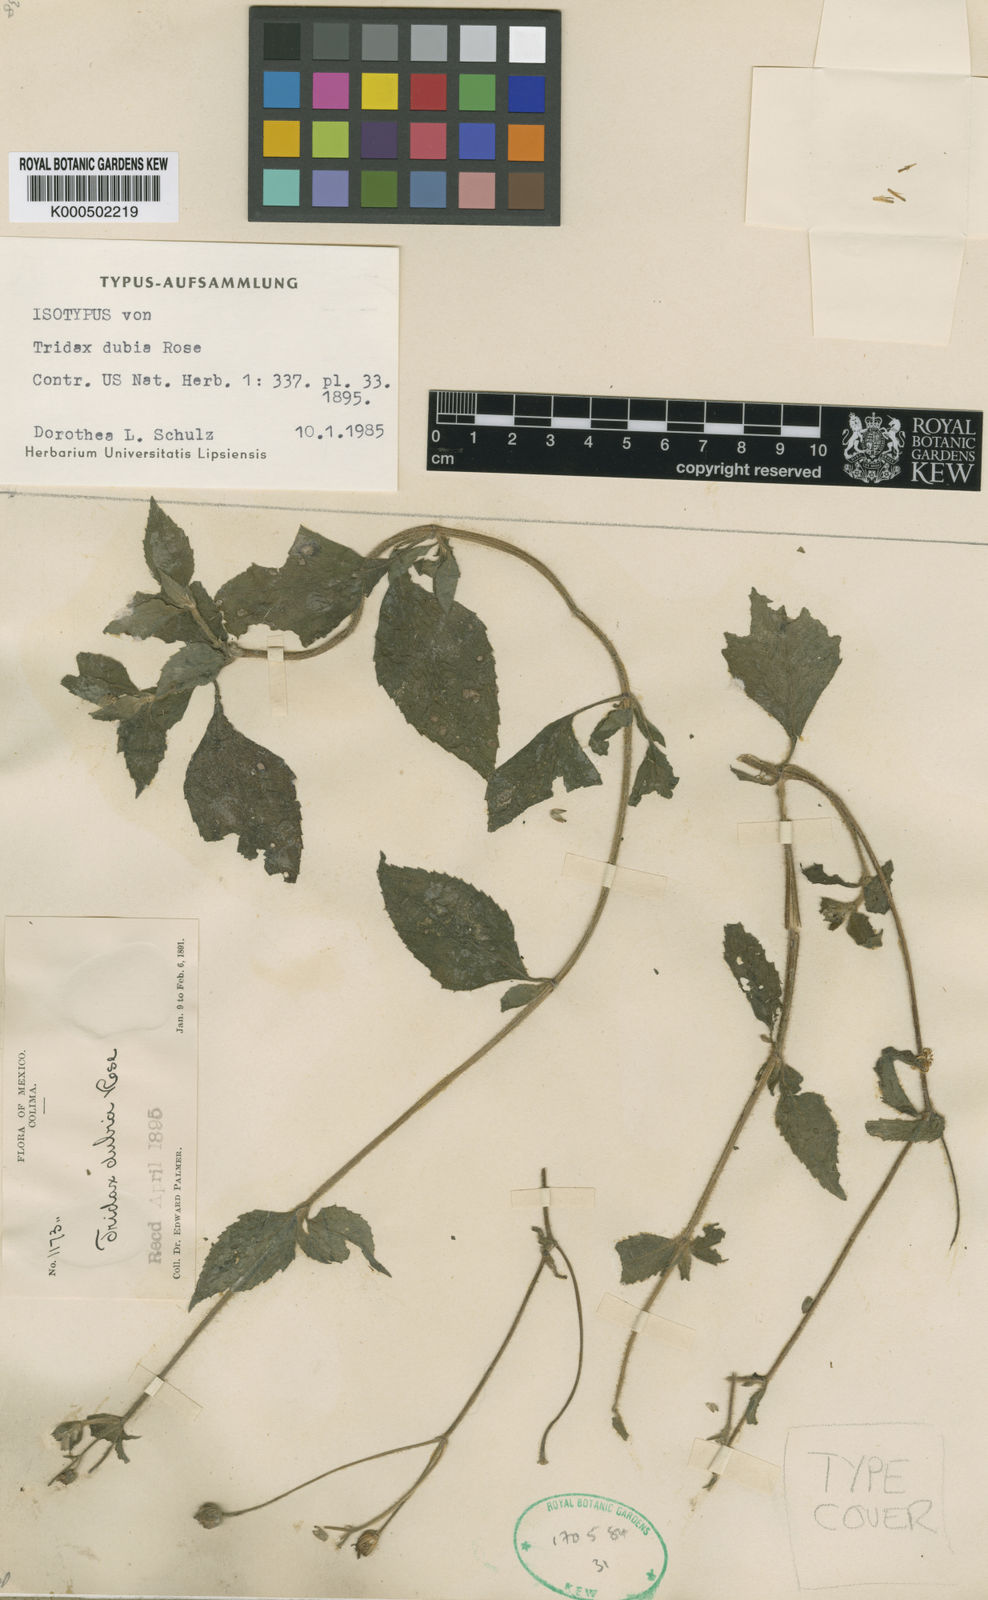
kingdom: Plantae
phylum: Tracheophyta
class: Magnoliopsida
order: Asterales
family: Asteraceae
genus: Tridax
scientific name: Tridax dubia
